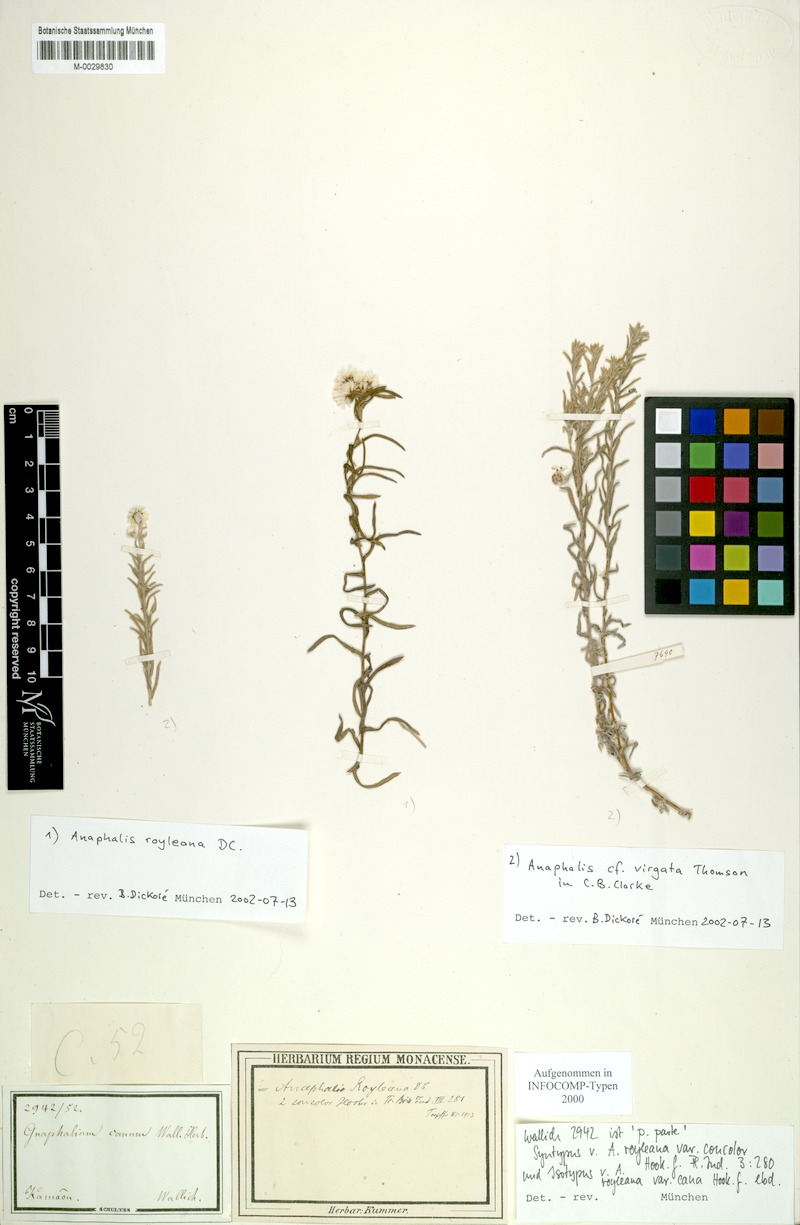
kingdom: Plantae
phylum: Tracheophyta
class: Magnoliopsida
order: Asterales
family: Asteraceae
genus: Anaphalis
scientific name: Anaphalis royleana
